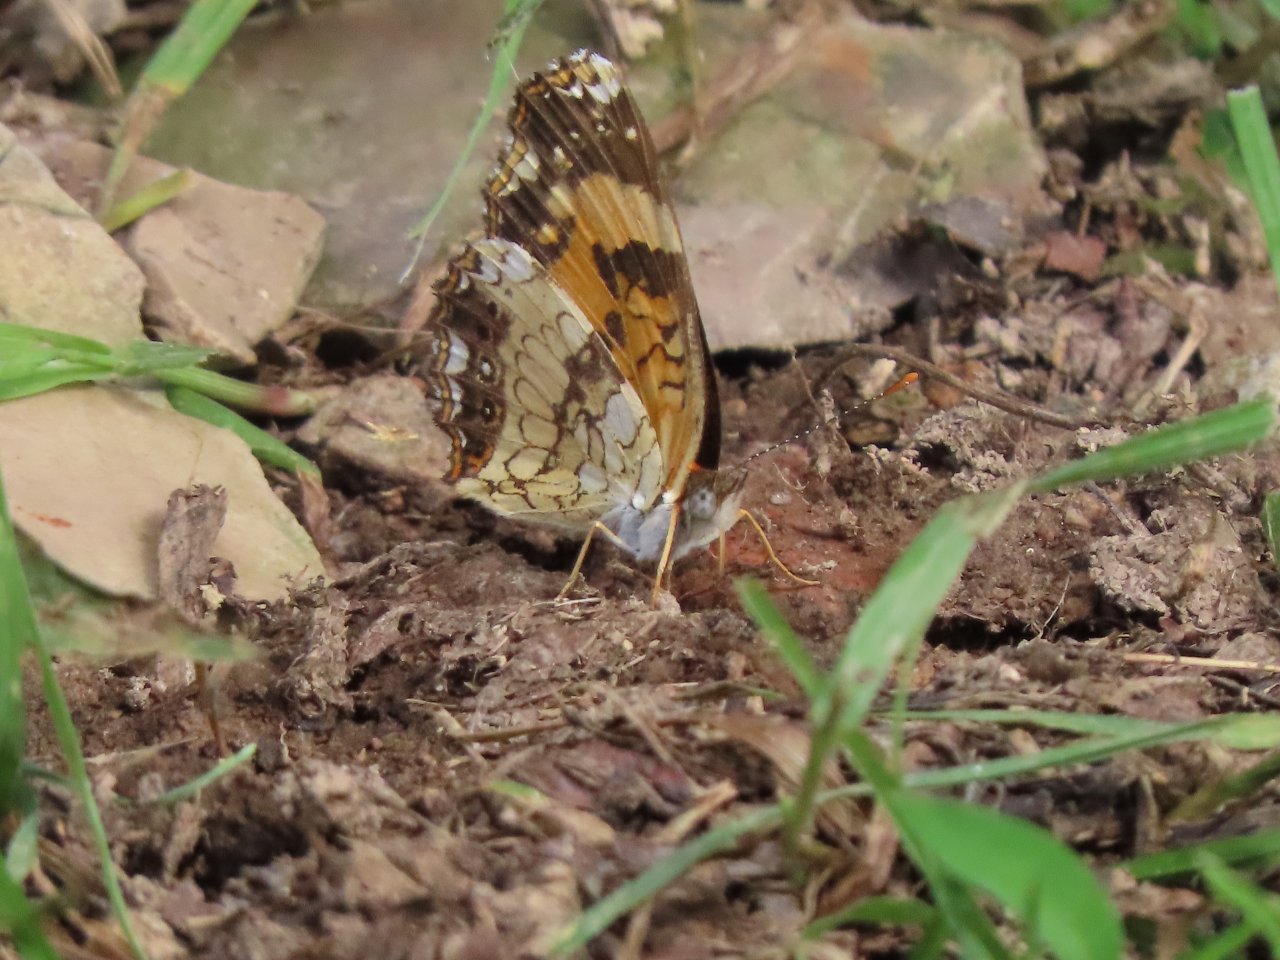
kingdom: Animalia
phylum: Arthropoda
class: Insecta
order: Lepidoptera
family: Nymphalidae
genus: Chlosyne
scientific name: Chlosyne nycteis
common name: Silvery Checkerspot
